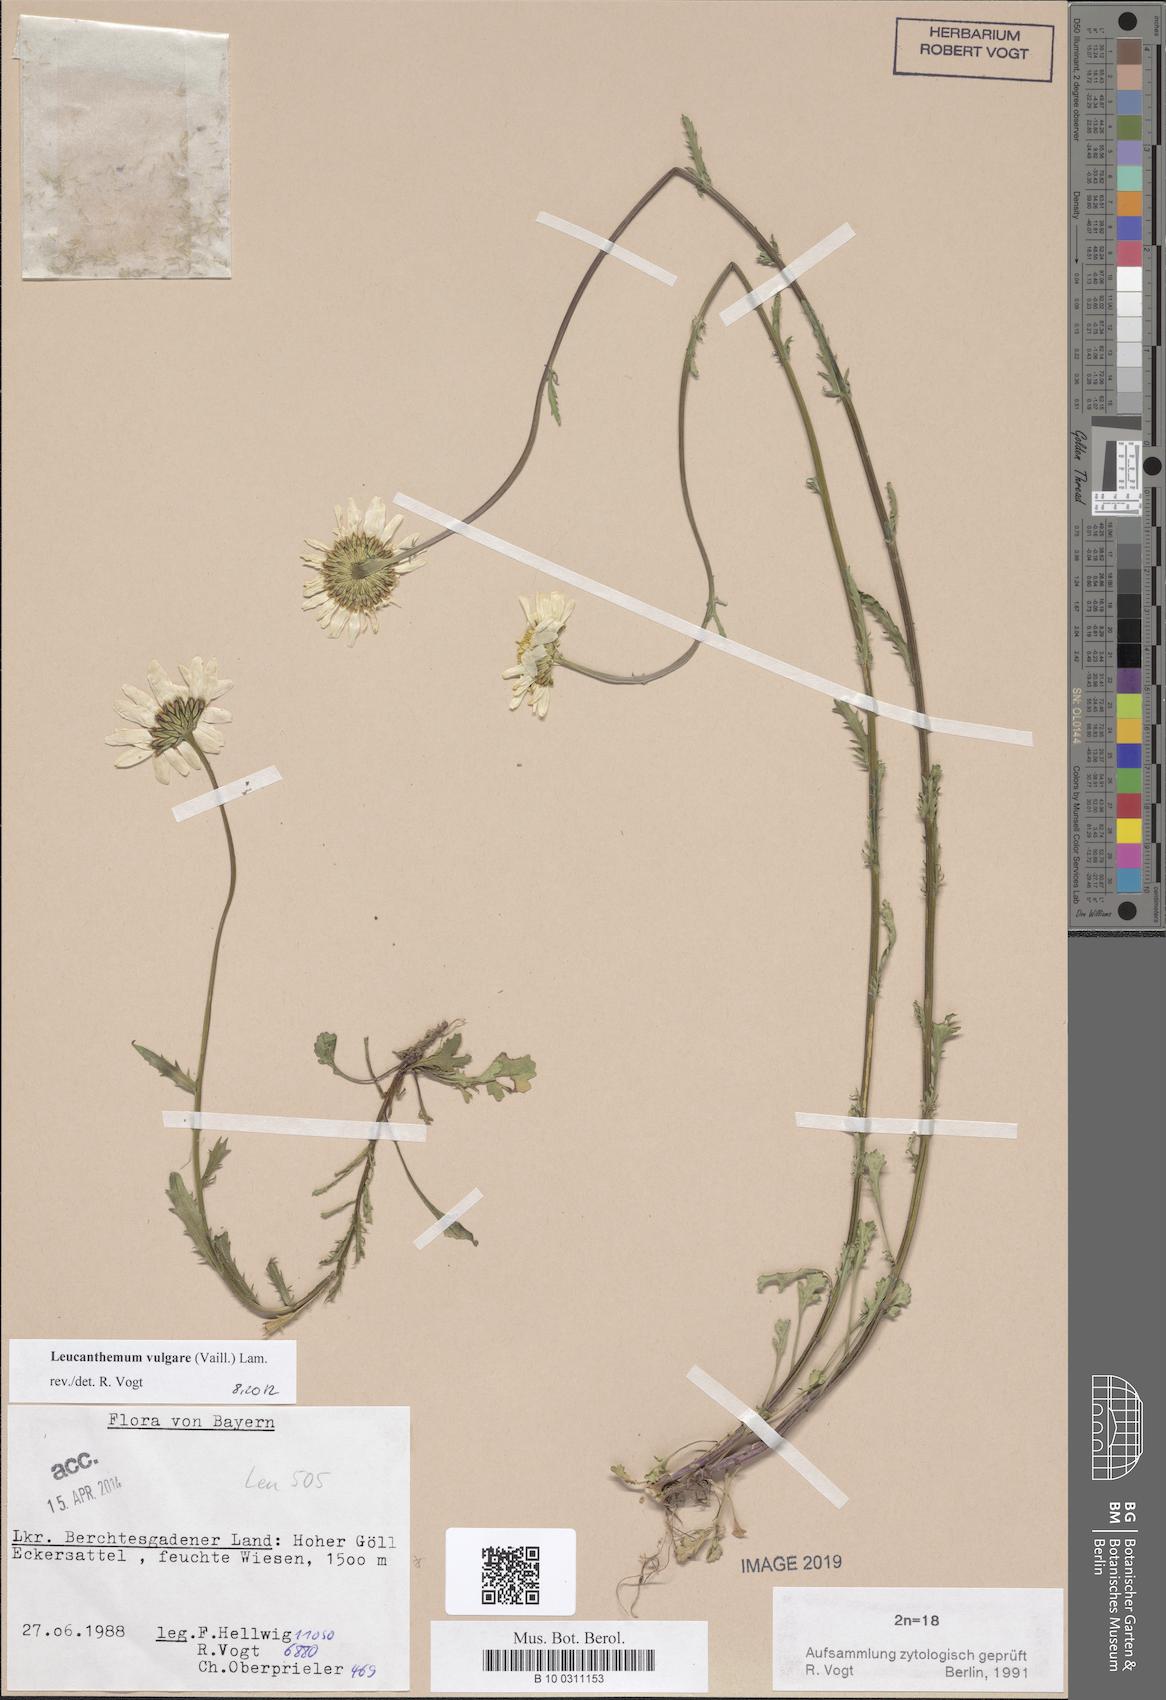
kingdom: Plantae
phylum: Tracheophyta
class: Magnoliopsida
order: Asterales
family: Asteraceae
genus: Leucanthemum
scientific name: Leucanthemum vulgare
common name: Oxeye daisy
